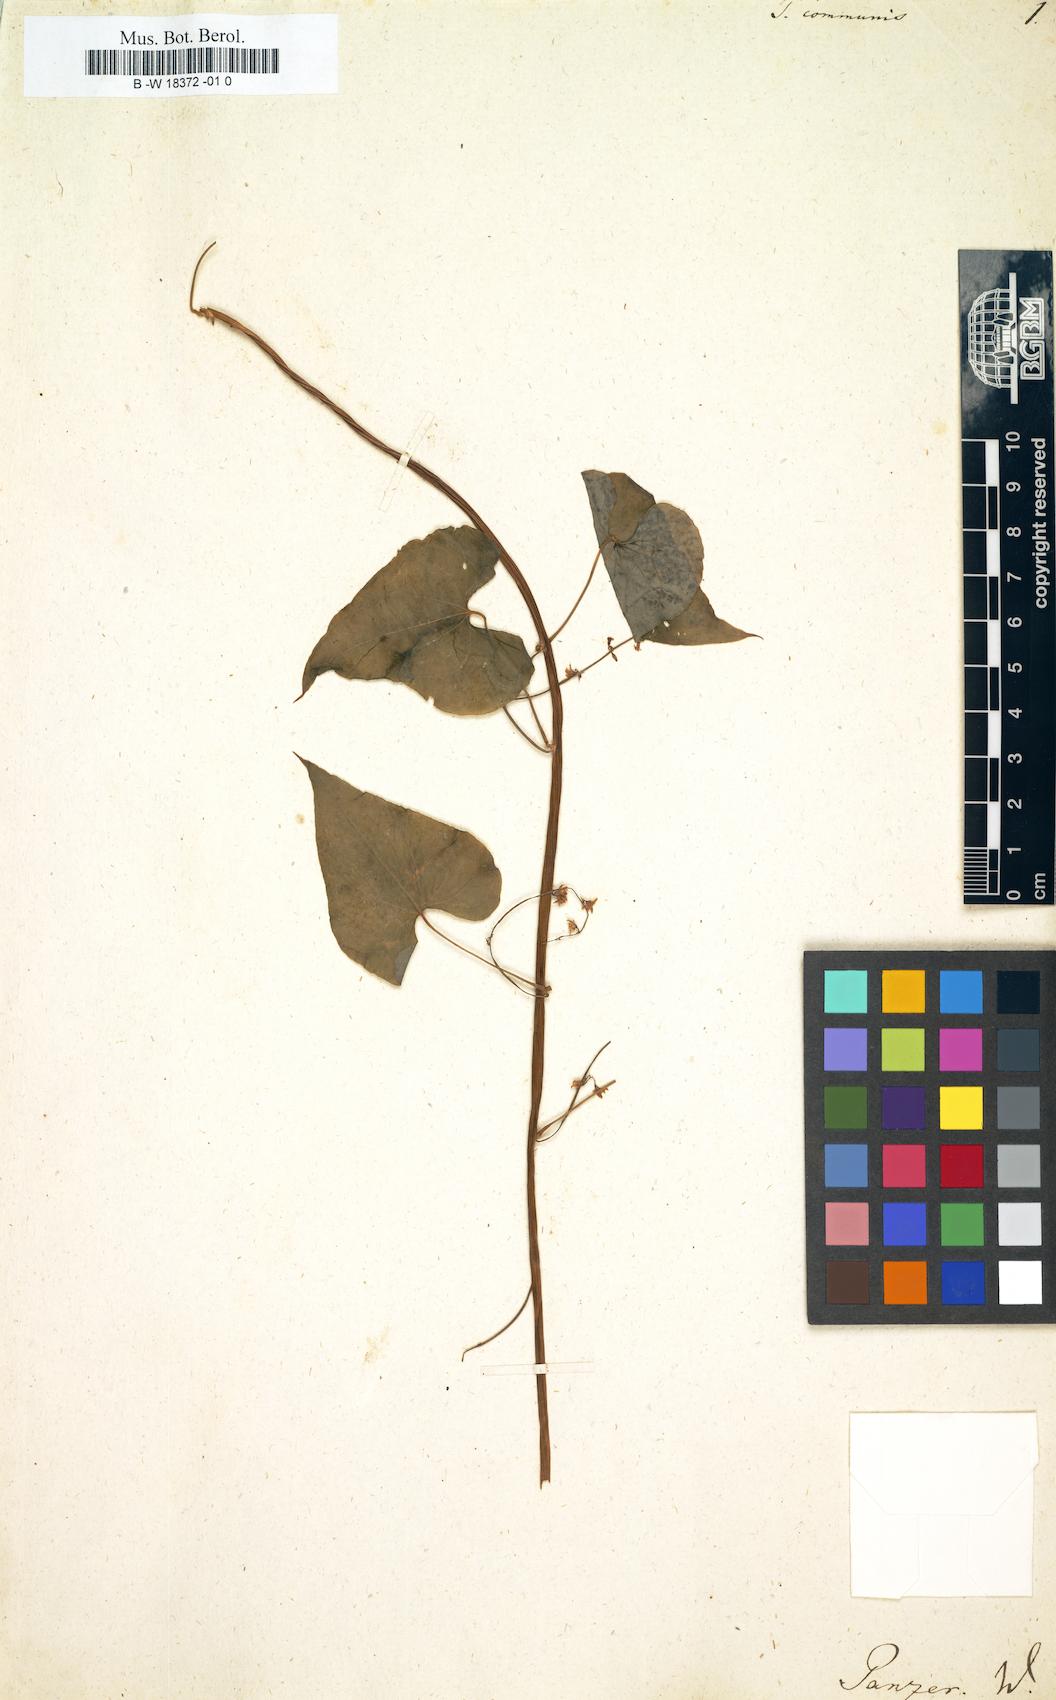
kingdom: Plantae
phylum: Tracheophyta
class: Liliopsida
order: Dioscoreales
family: Dioscoreaceae
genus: Dioscorea
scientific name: Dioscorea communis
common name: Black-bindweed
